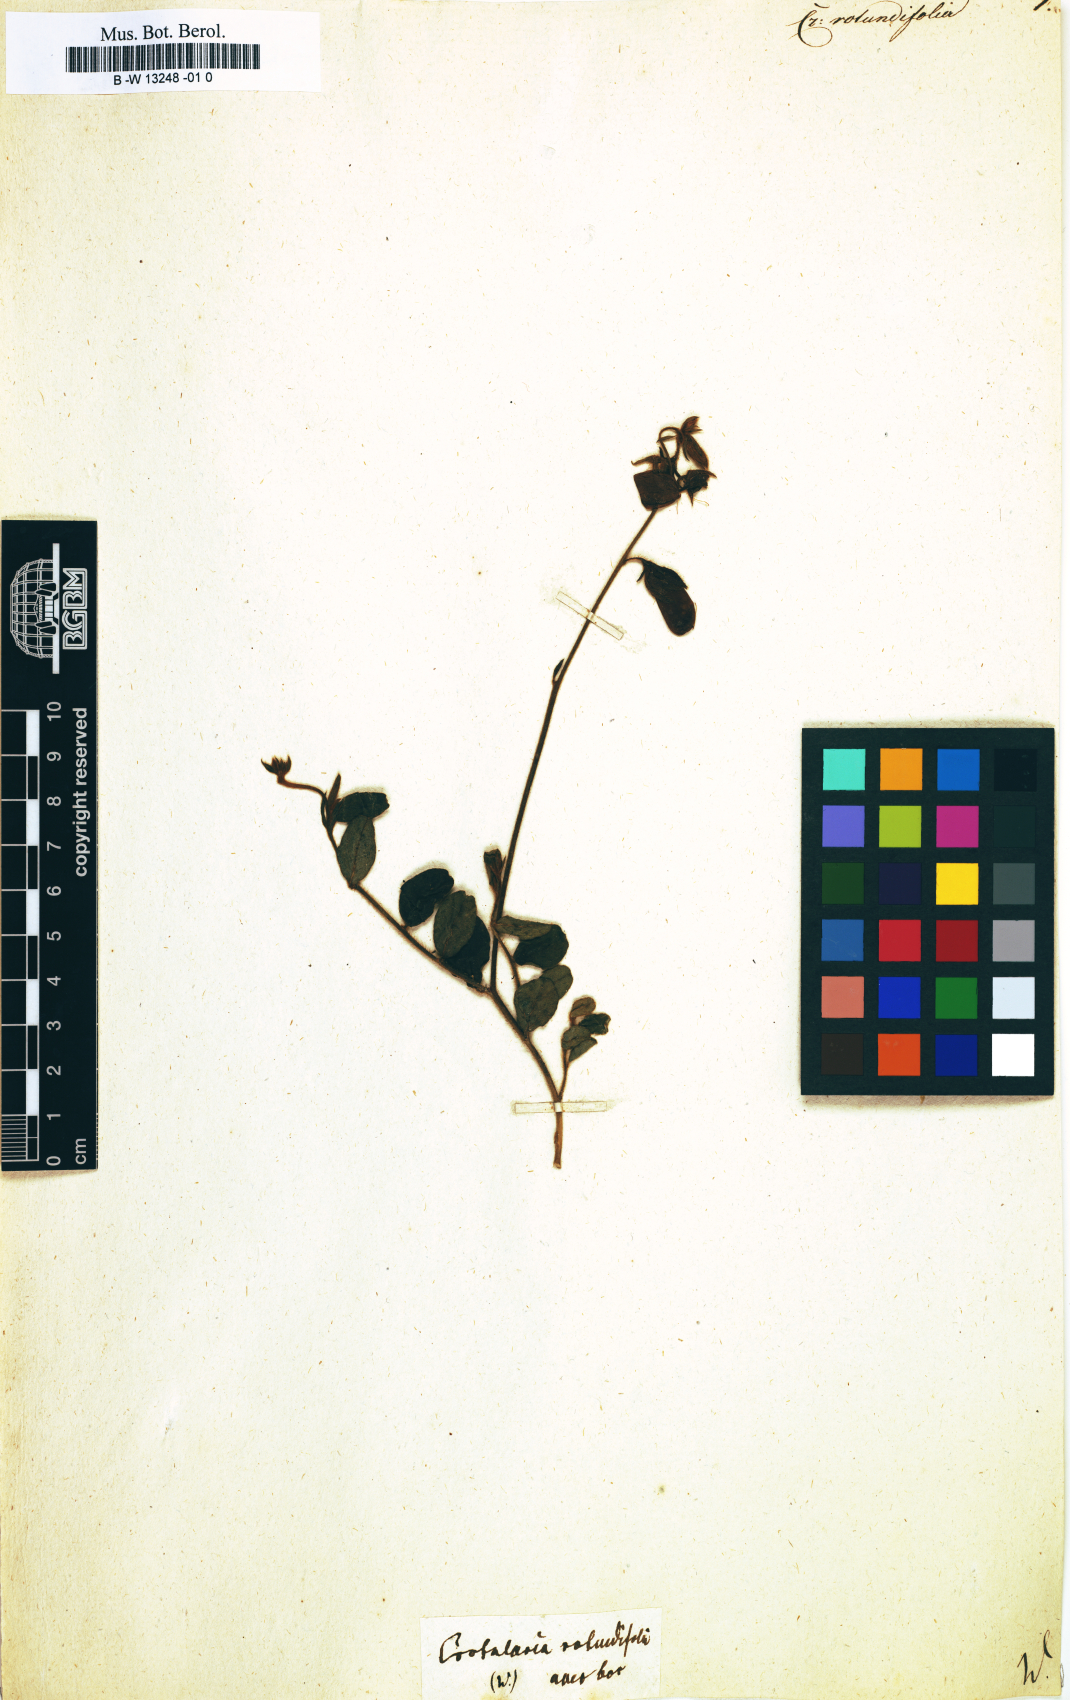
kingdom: Plantae
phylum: Tracheophyta
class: Magnoliopsida
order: Fabales
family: Fabaceae
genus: Crotalaria
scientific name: Crotalaria rotundifolia
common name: Prostrate rattlebox
